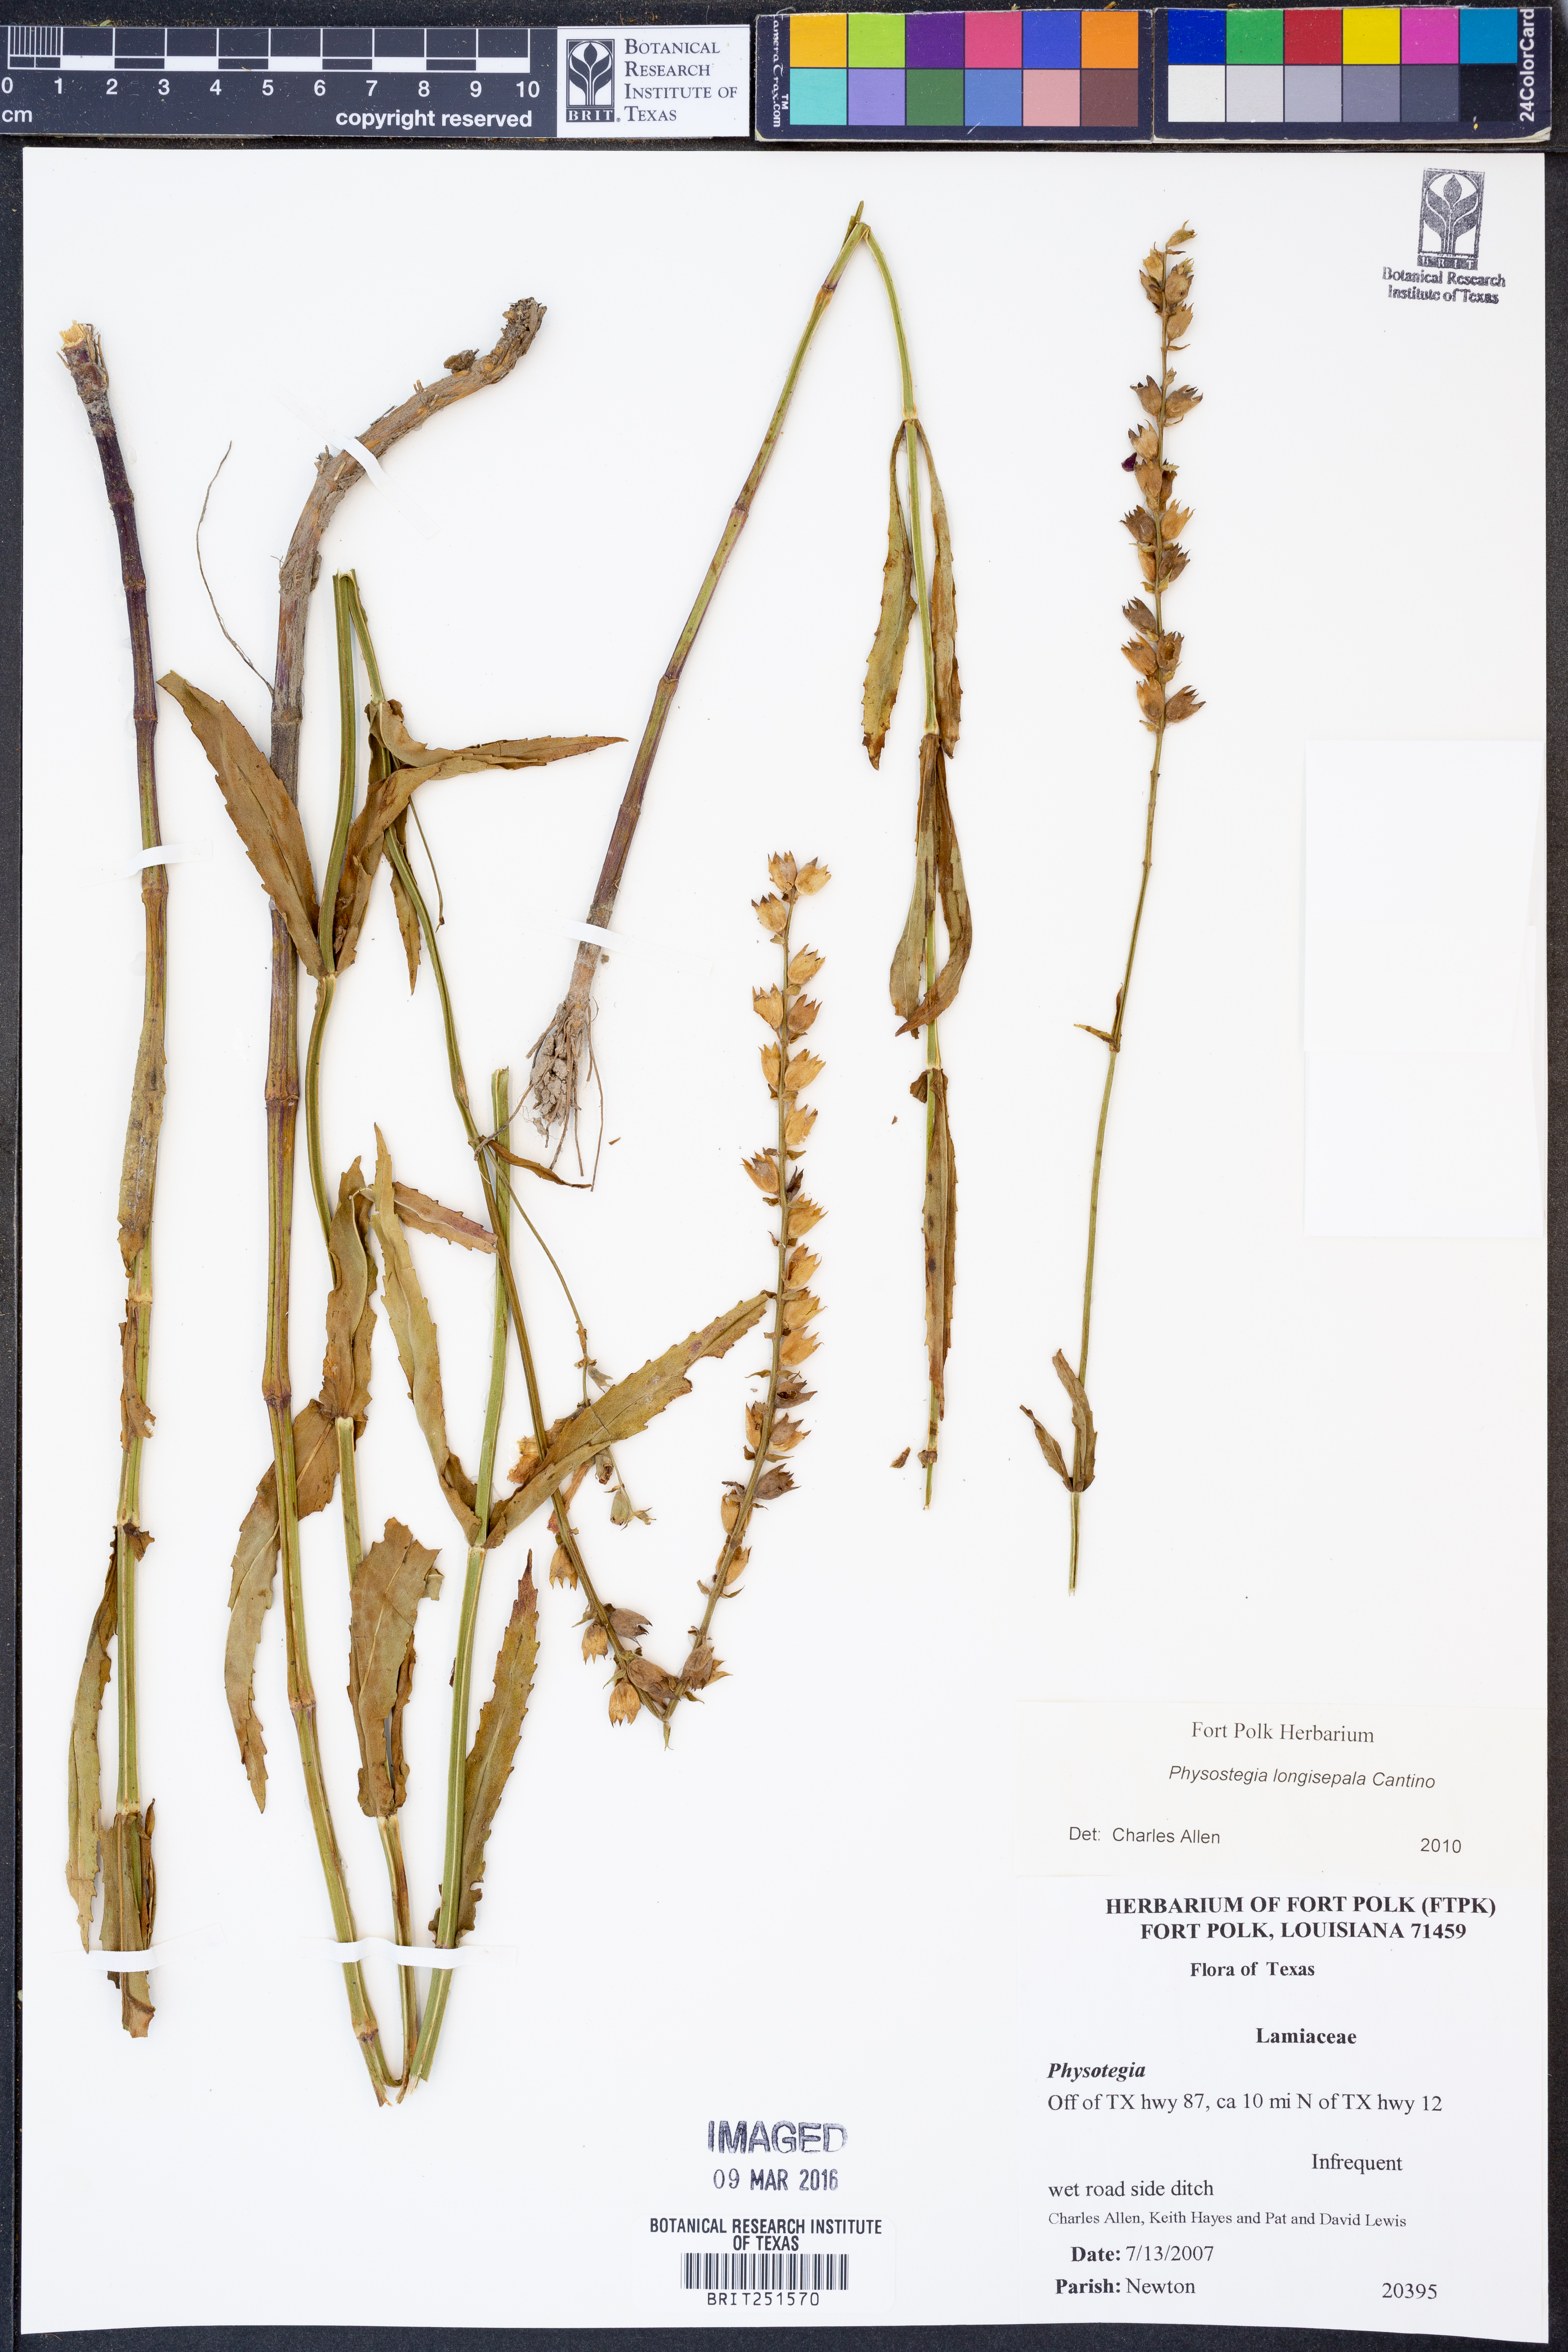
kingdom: Plantae
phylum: Tracheophyta
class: Magnoliopsida
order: Lamiales
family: Lamiaceae
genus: Physostegia
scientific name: Physostegia longisepala
